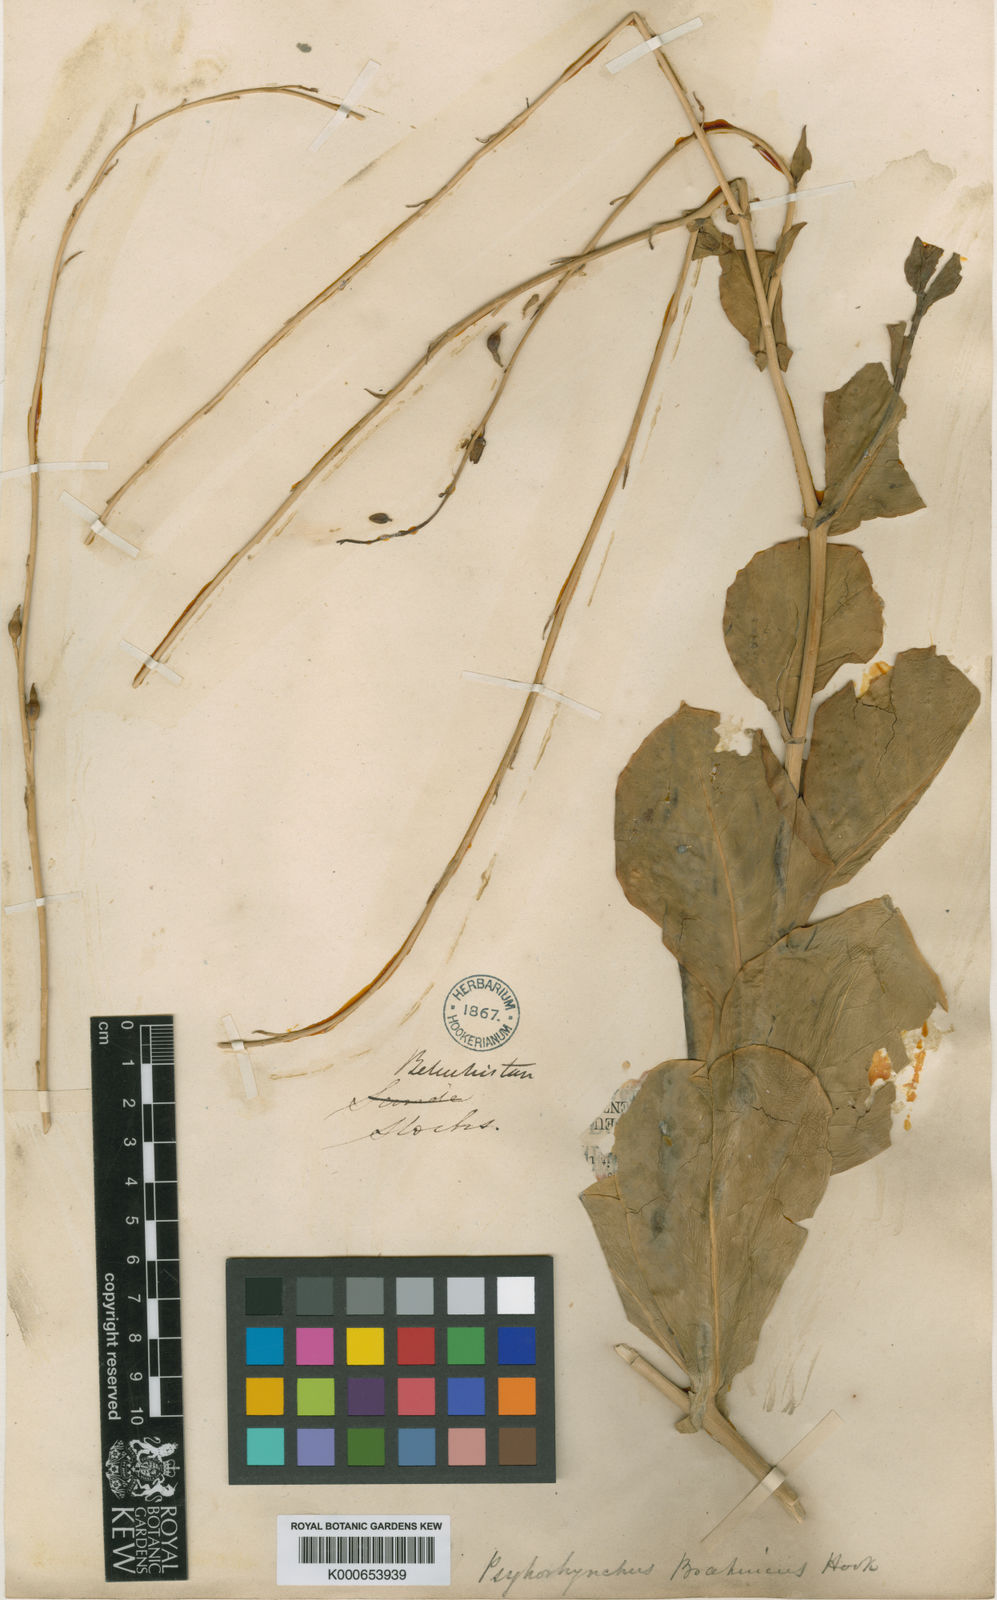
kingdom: Plantae
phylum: Tracheophyta
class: Magnoliopsida
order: Brassicales
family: Brassicaceae
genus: Physorhynchus
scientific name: Physorhynchus brahuicus
